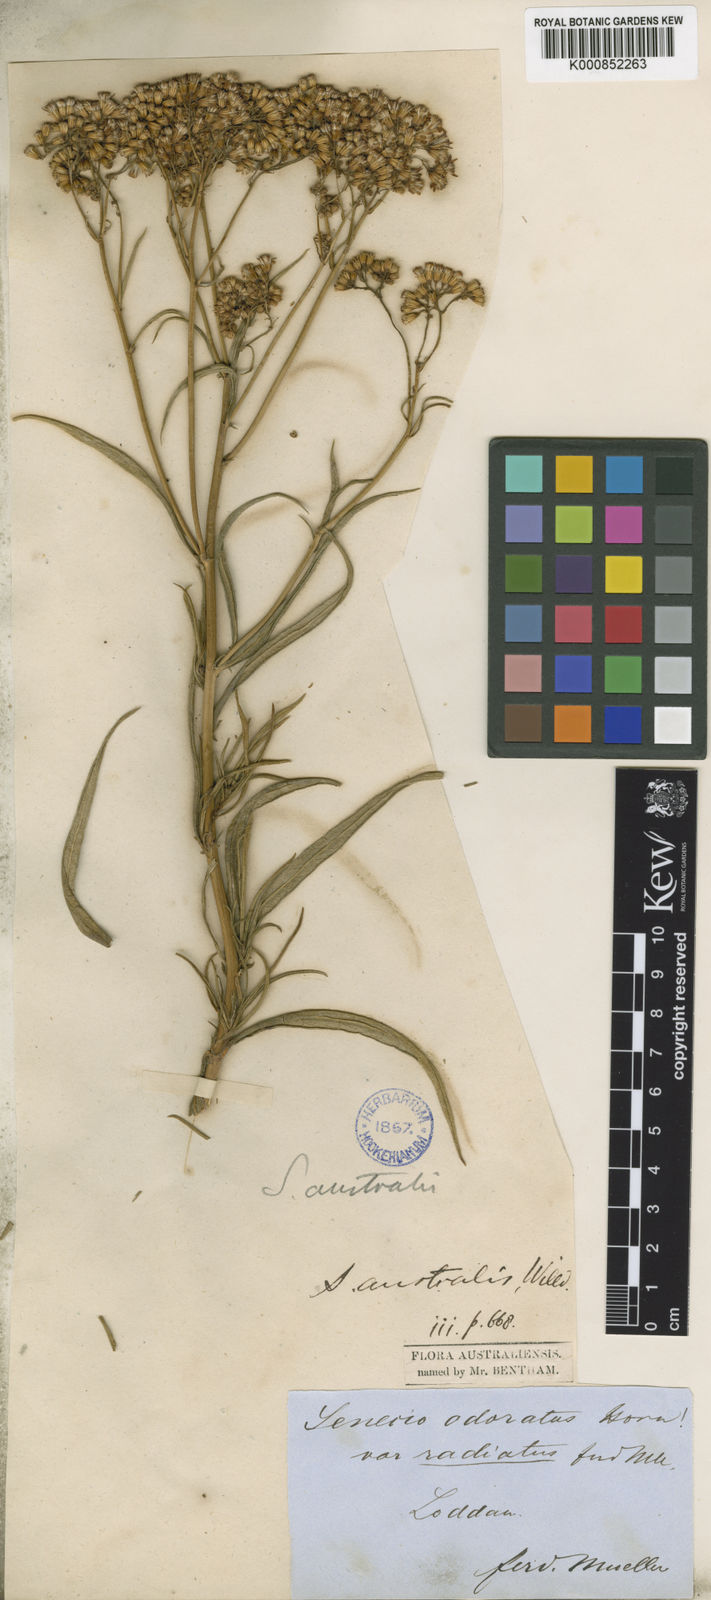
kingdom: Plantae
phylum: Tracheophyta
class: Magnoliopsida
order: Asterales
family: Asteraceae
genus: Senecio
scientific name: Senecio linearifolius
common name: Fireweed groundsel
